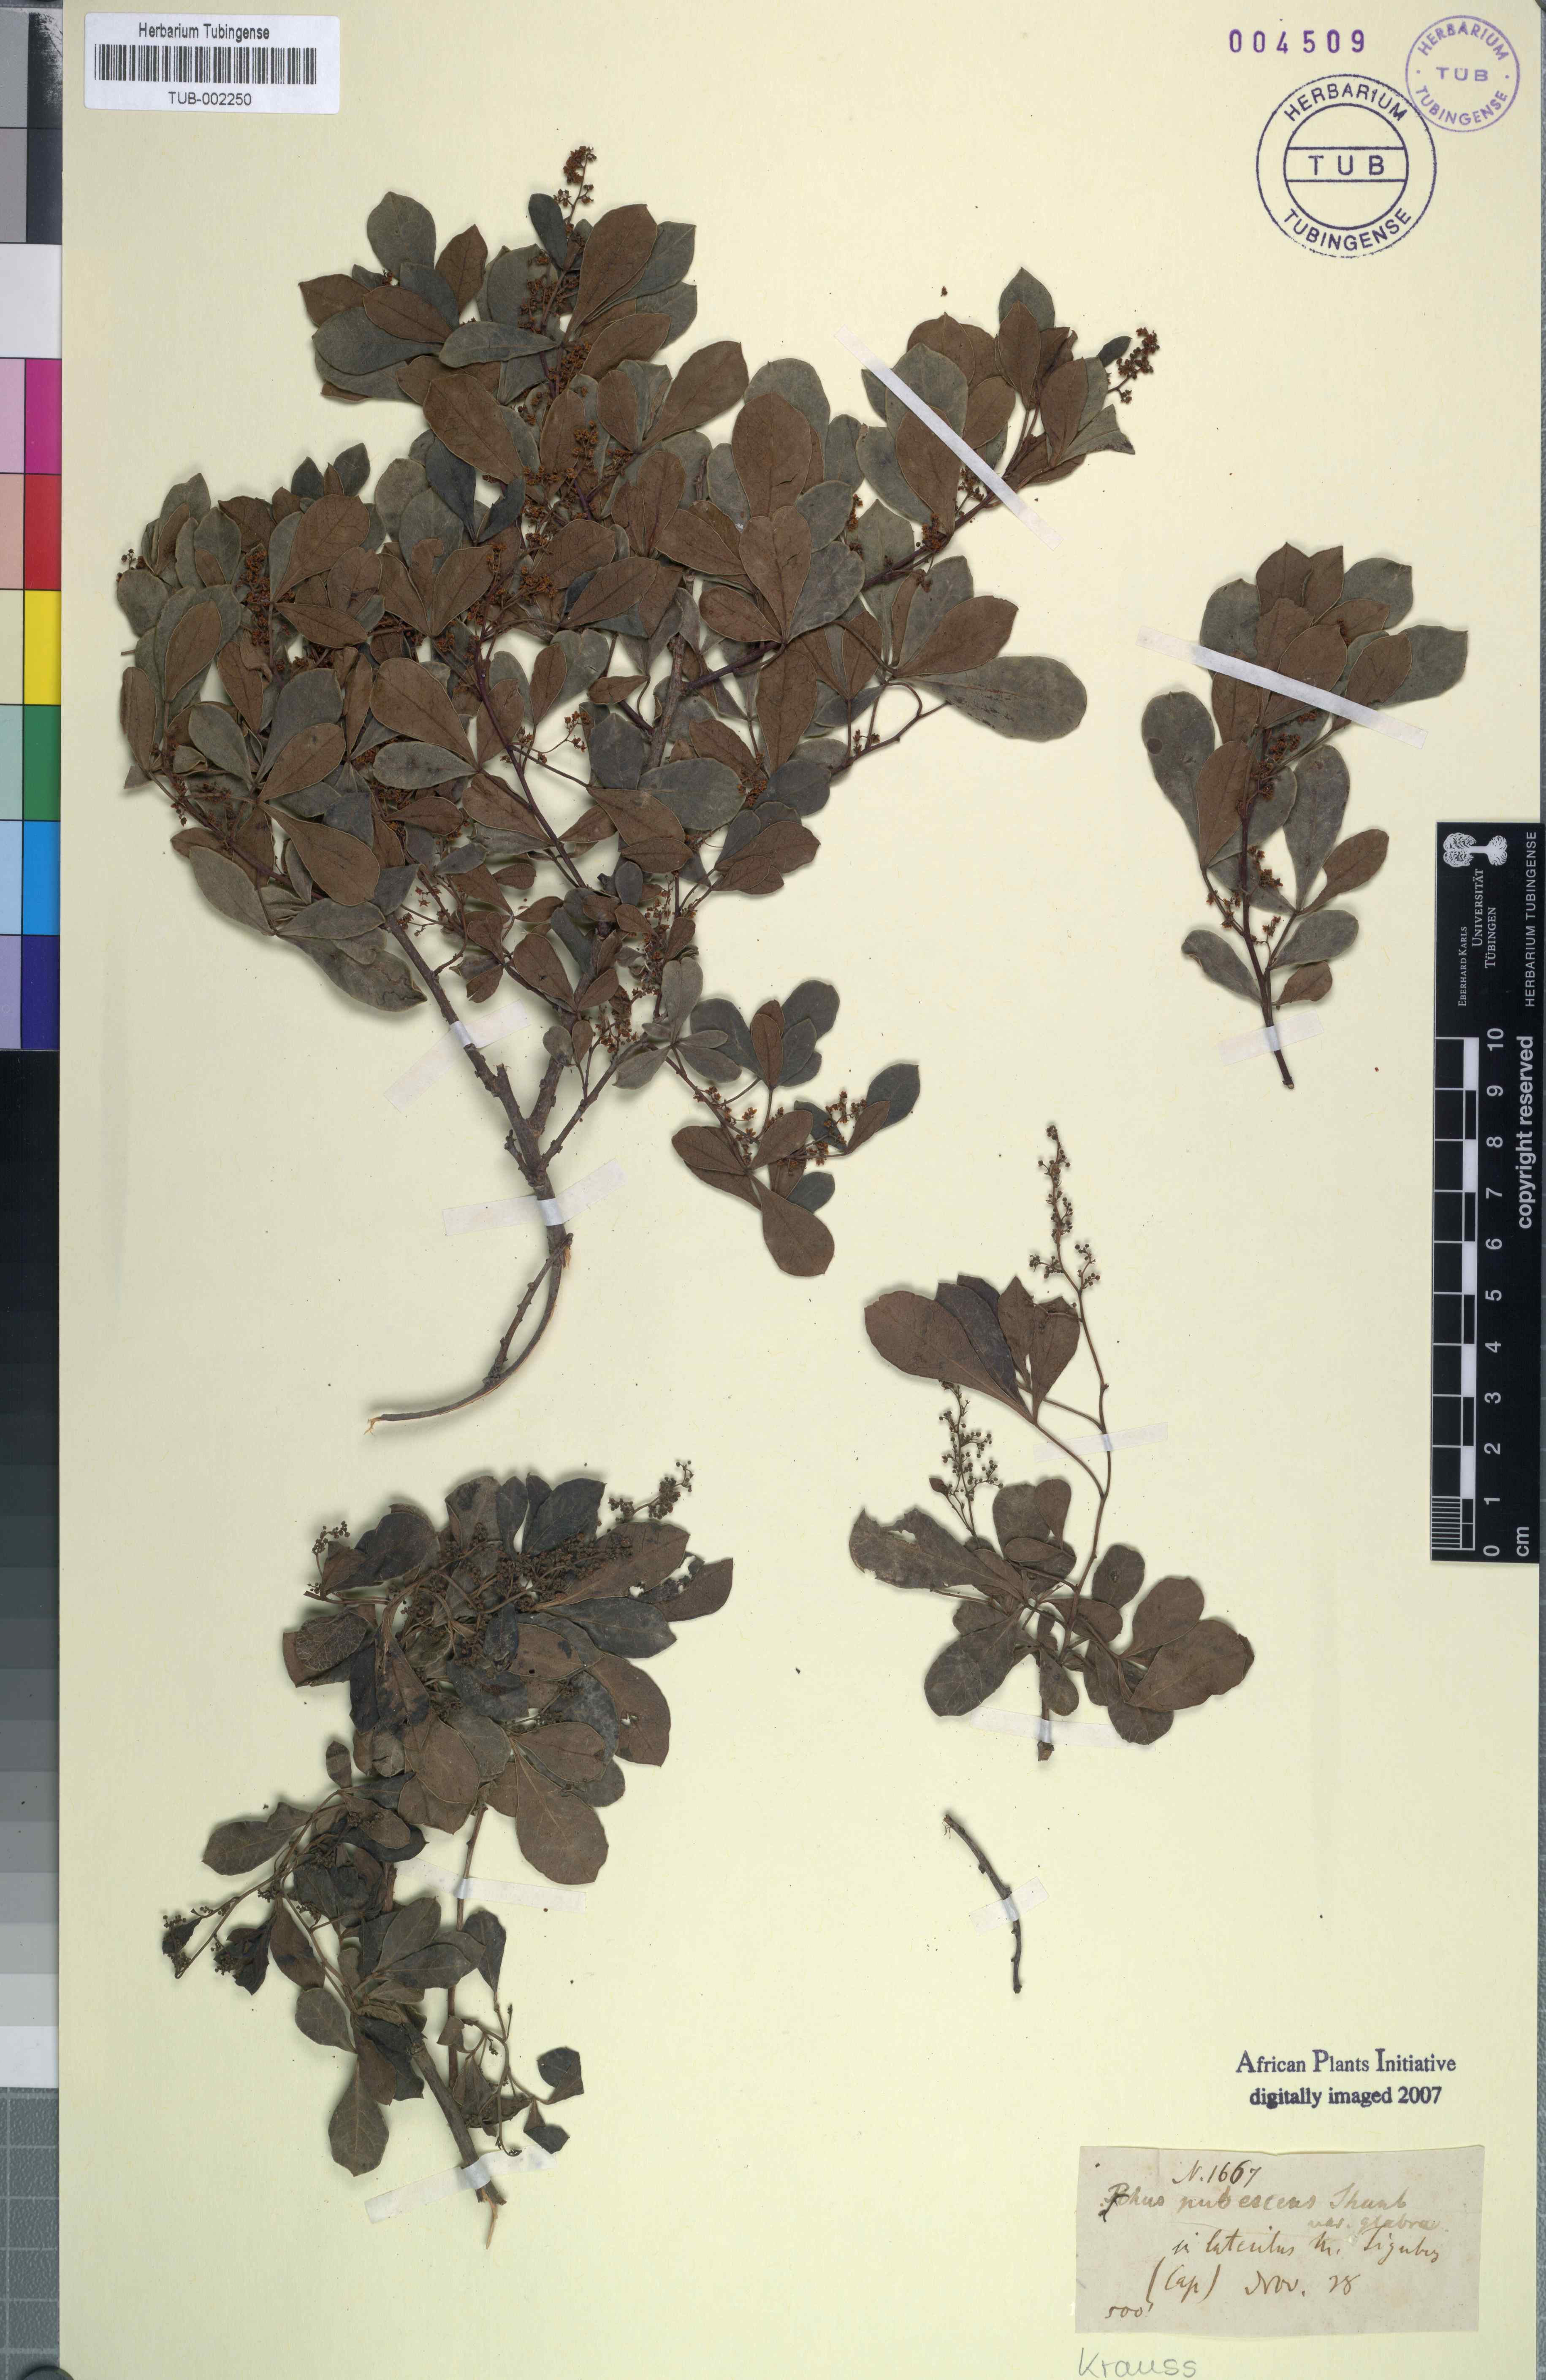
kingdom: Plantae
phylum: Tracheophyta
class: Magnoliopsida
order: Sapindales
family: Anacardiaceae
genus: Searsia
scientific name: Searsia laevigata
